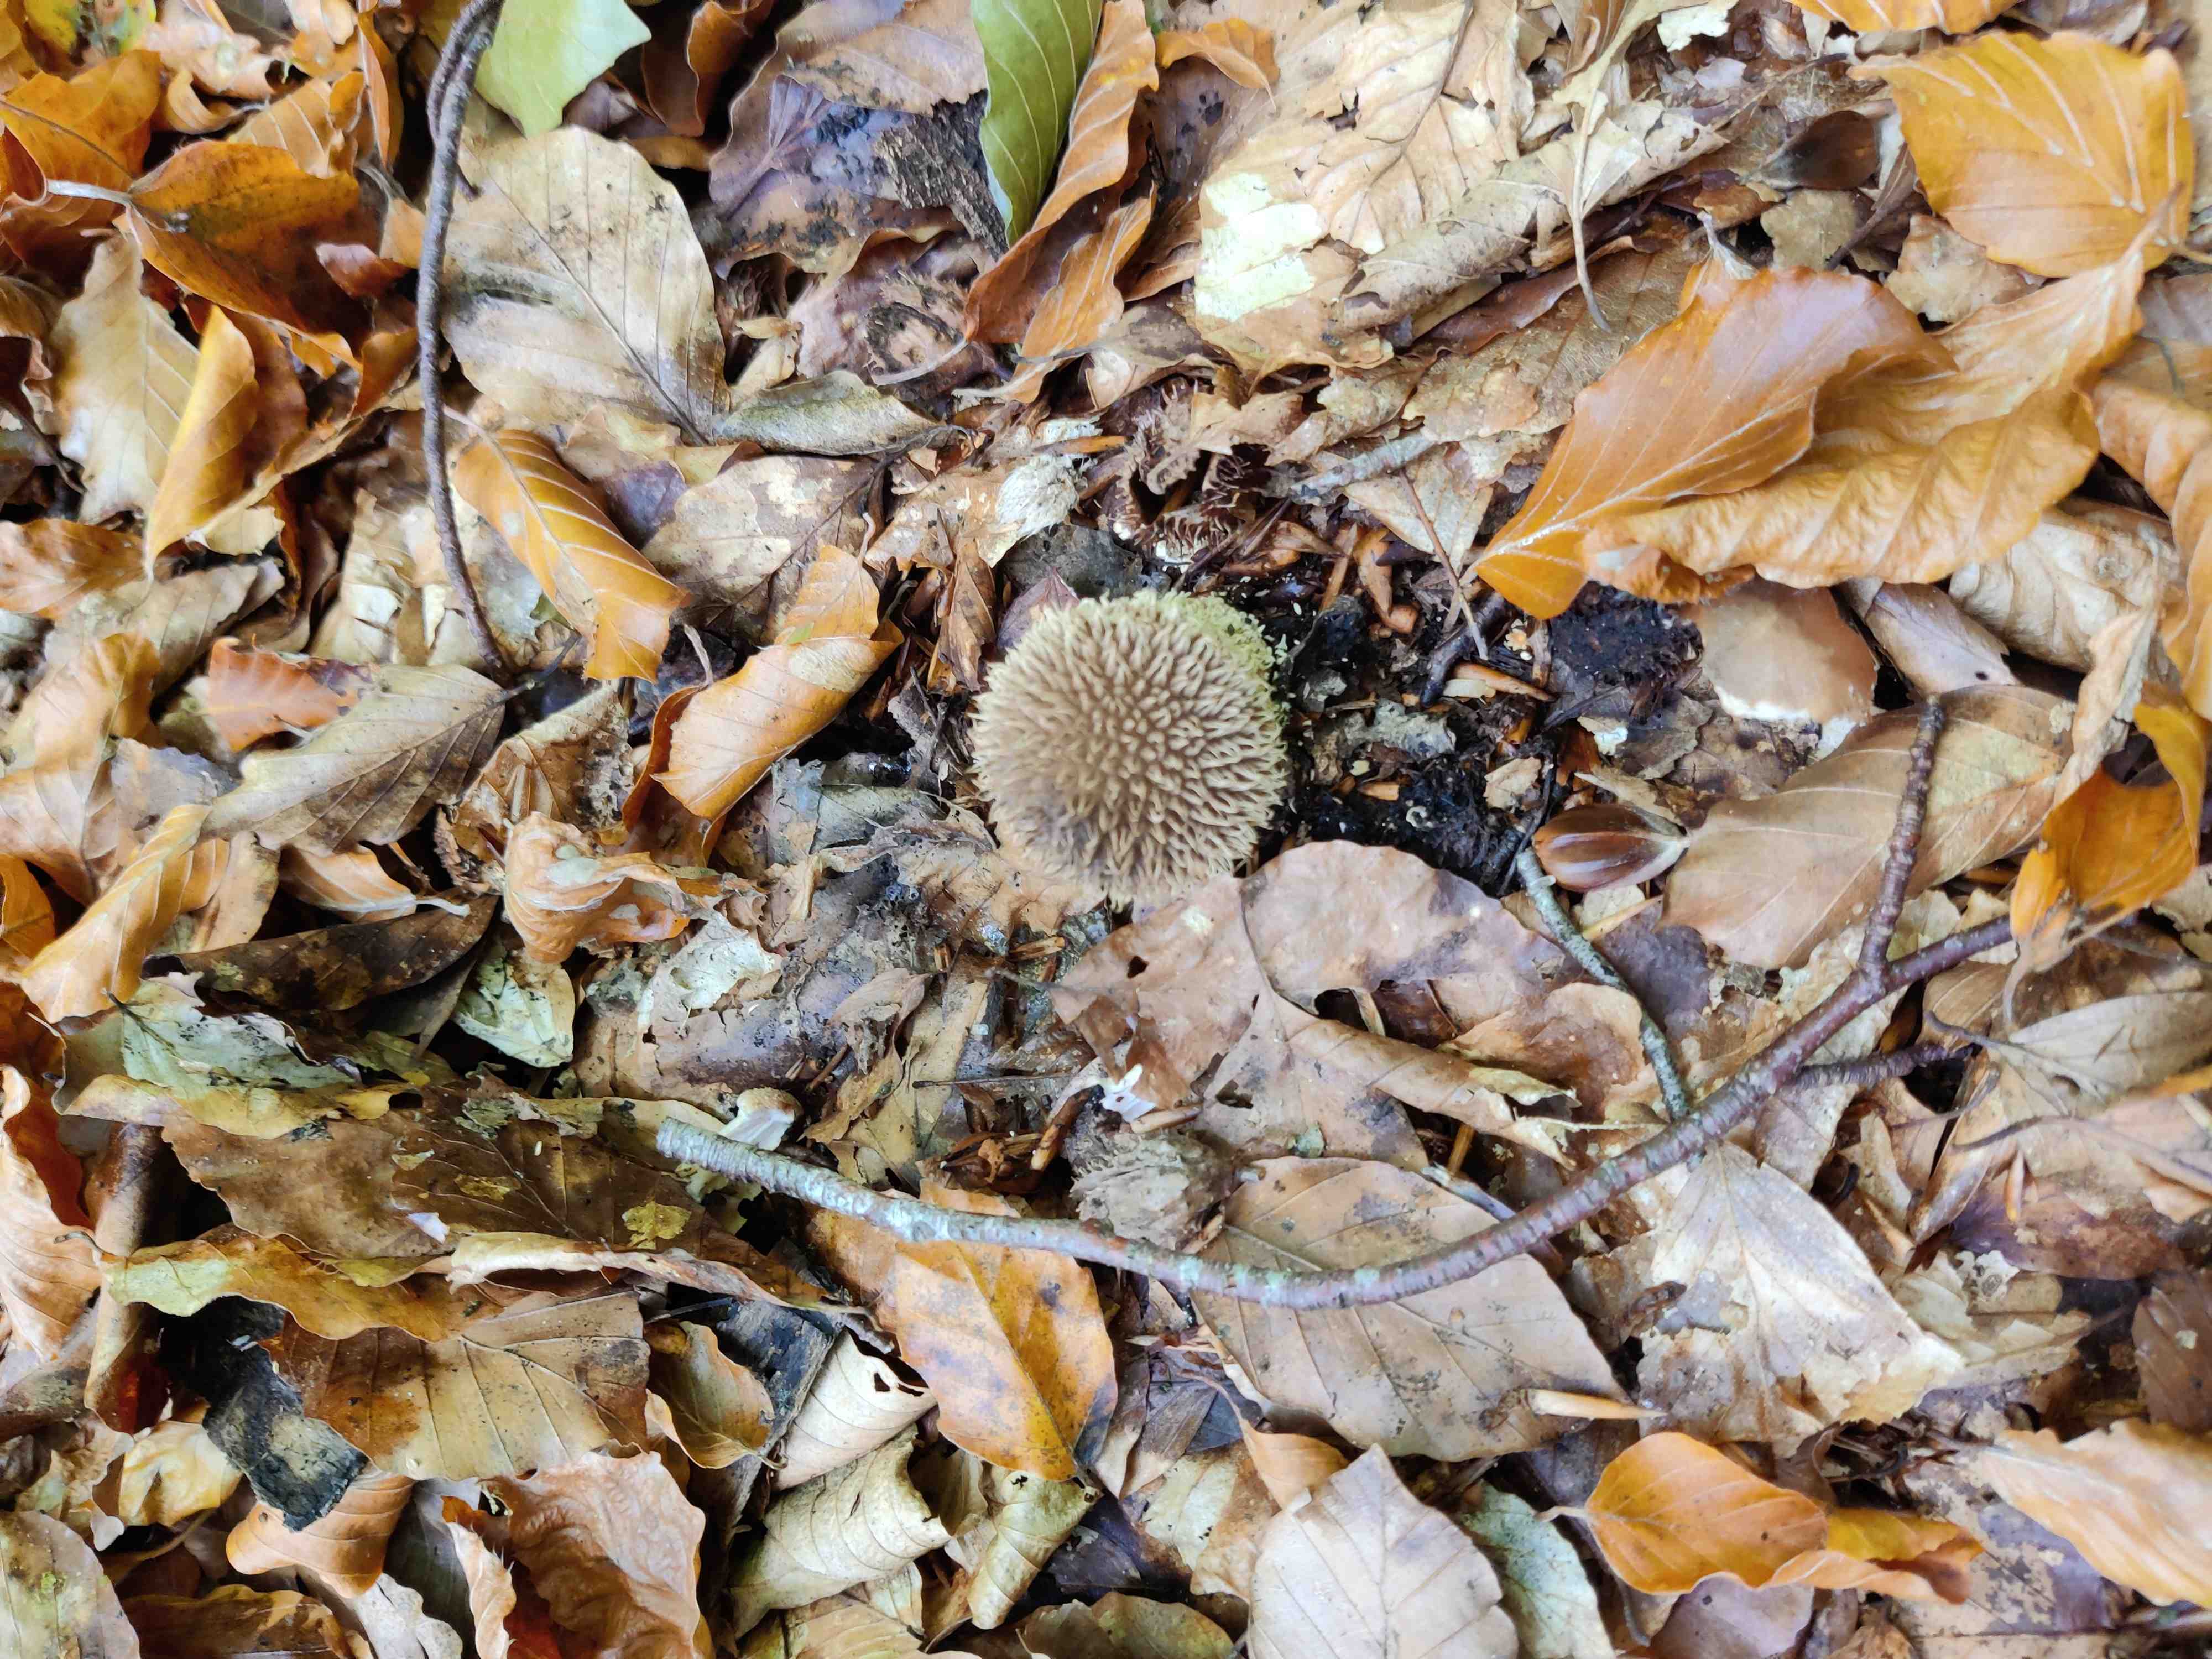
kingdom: Fungi
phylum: Basidiomycota
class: Agaricomycetes
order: Agaricales
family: Lycoperdaceae
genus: Lycoperdon
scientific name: Lycoperdon echinatum
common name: pindsvine-støvbold
